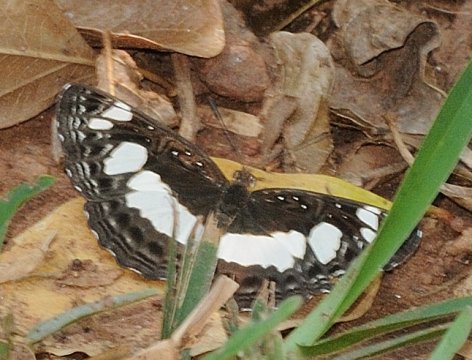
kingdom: Animalia
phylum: Arthropoda
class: Insecta
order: Lepidoptera
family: Nymphalidae
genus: Neptis
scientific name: Neptis saclava
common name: Spotted Sailer
